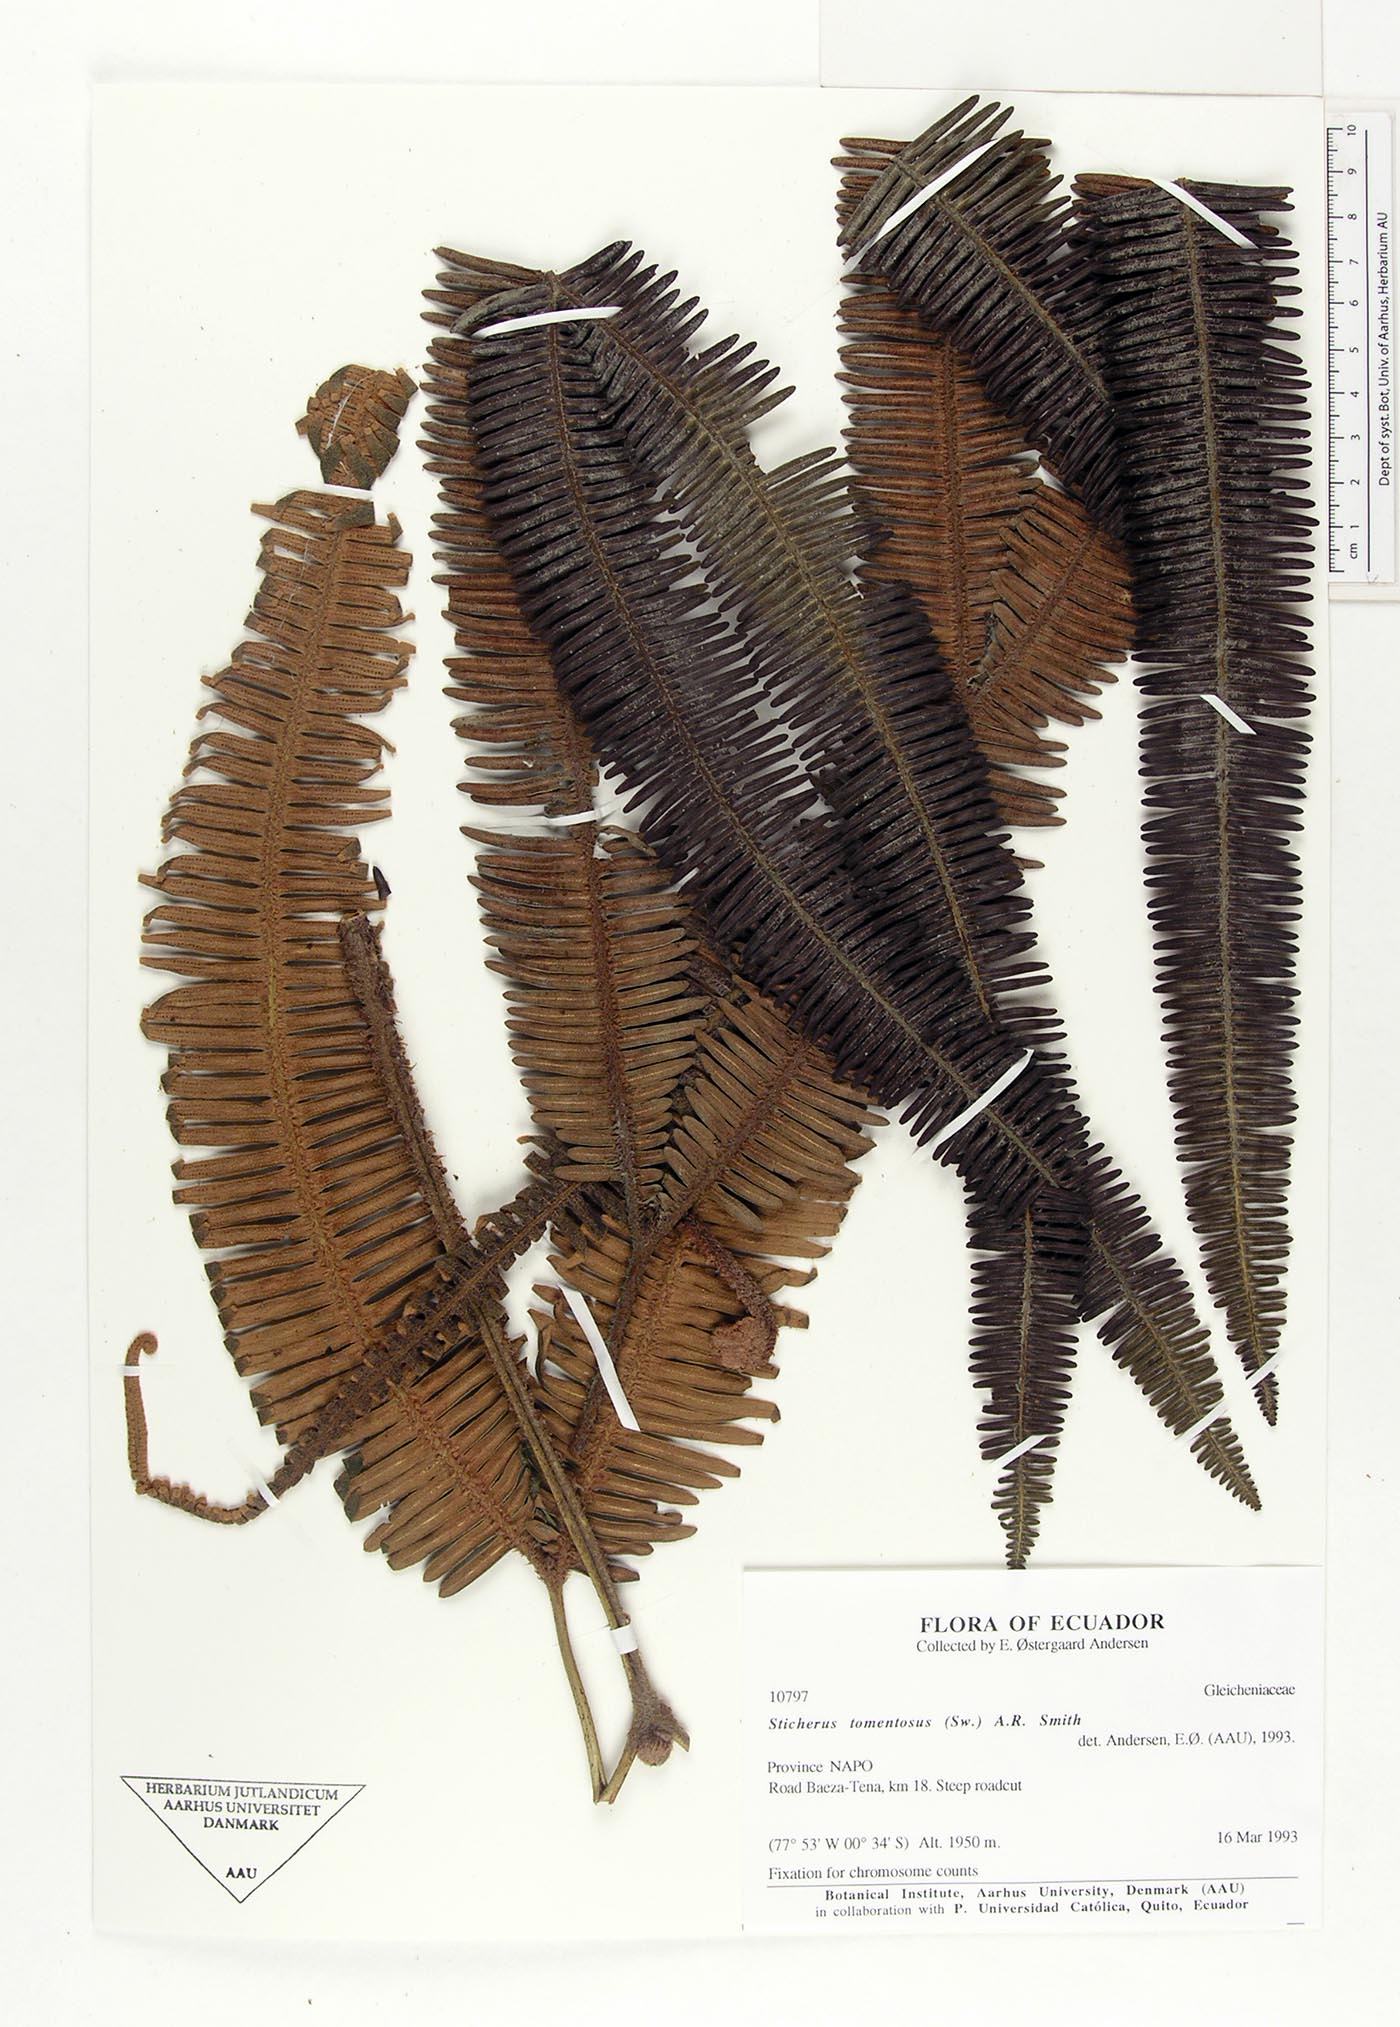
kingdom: Plantae
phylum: Tracheophyta
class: Polypodiopsida
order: Gleicheniales
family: Gleicheniaceae
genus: Sticherus
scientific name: Sticherus tomentosus
